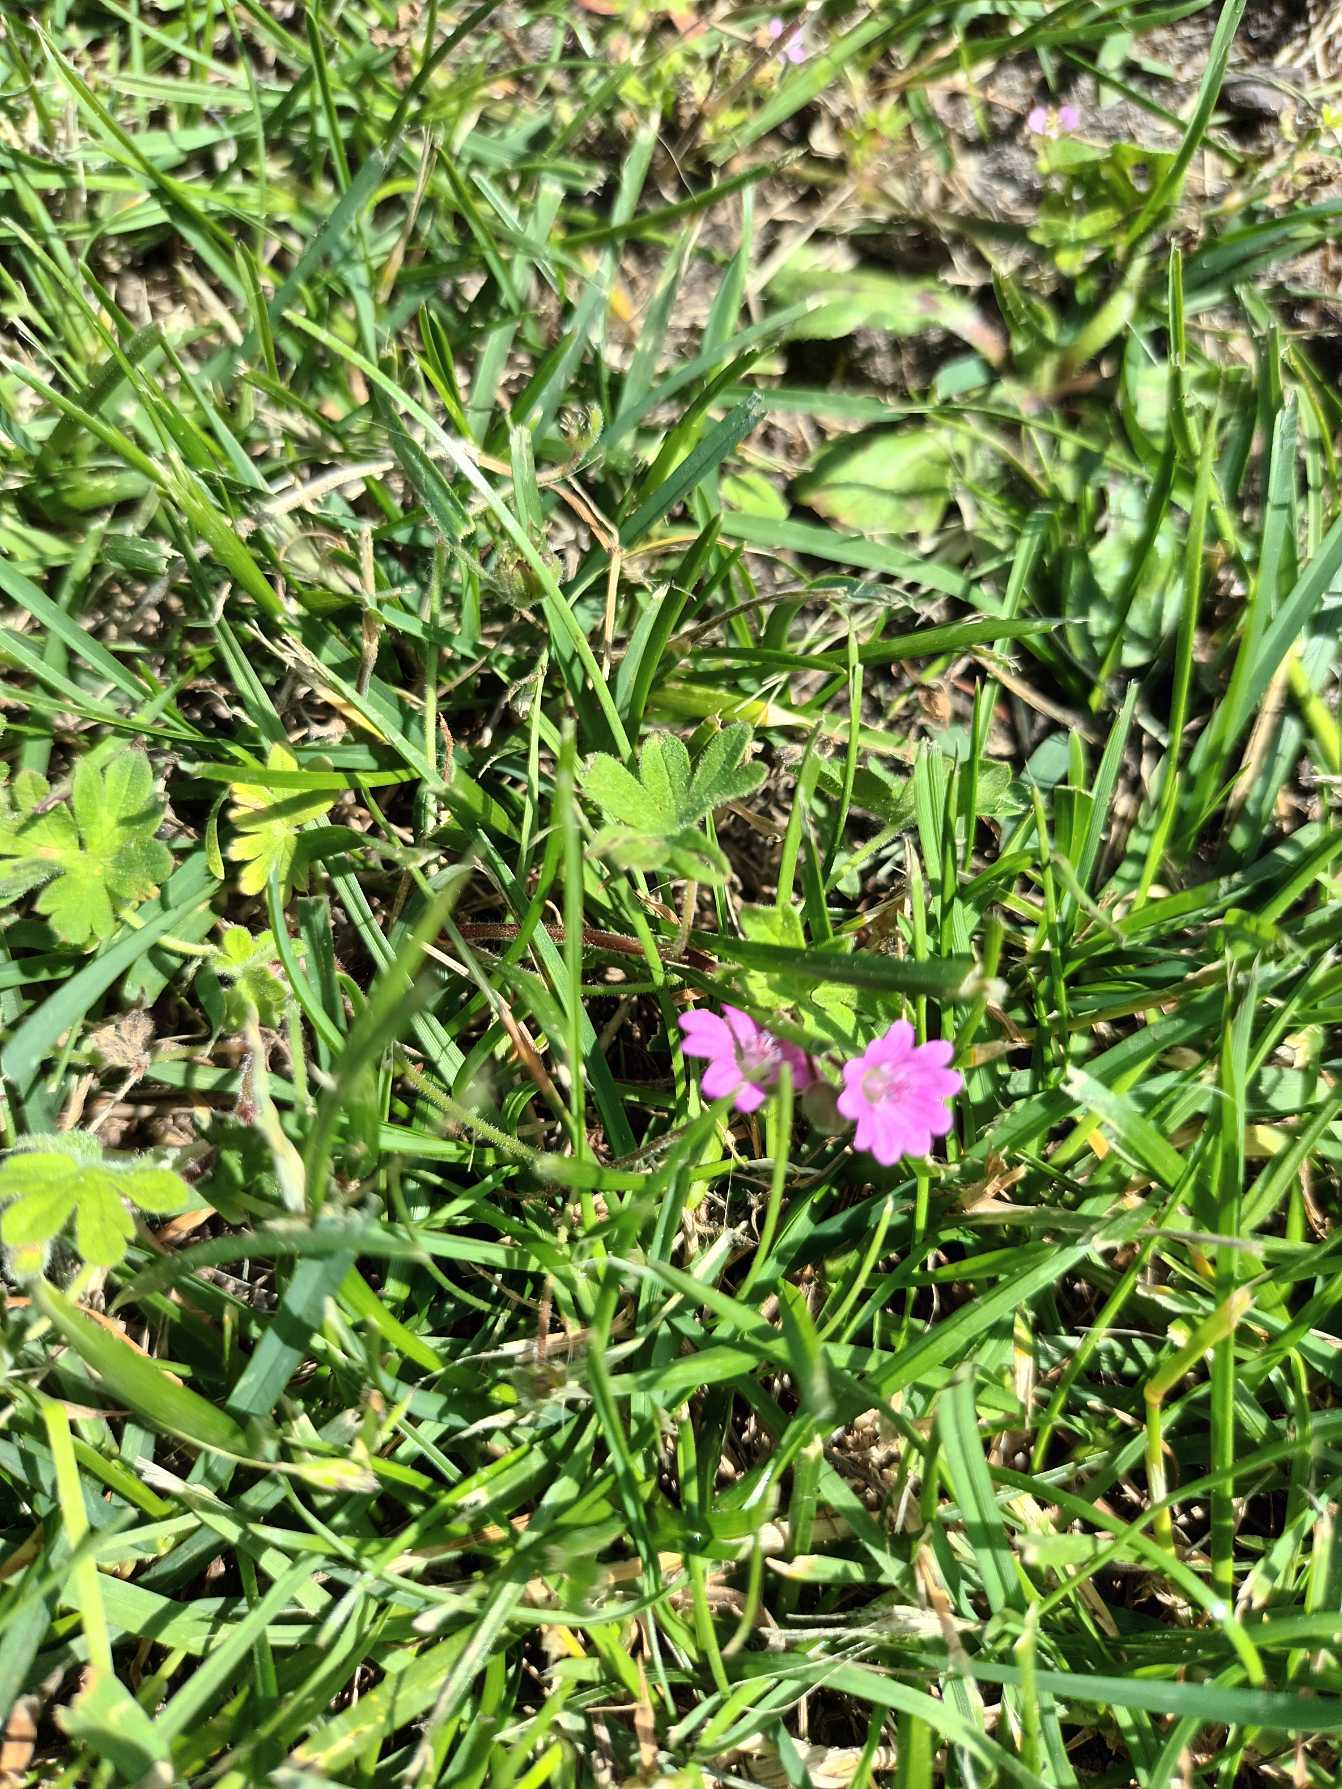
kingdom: Plantae
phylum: Tracheophyta
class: Magnoliopsida
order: Geraniales
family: Geraniaceae
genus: Geranium
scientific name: Geranium molle
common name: Blød storkenæb
